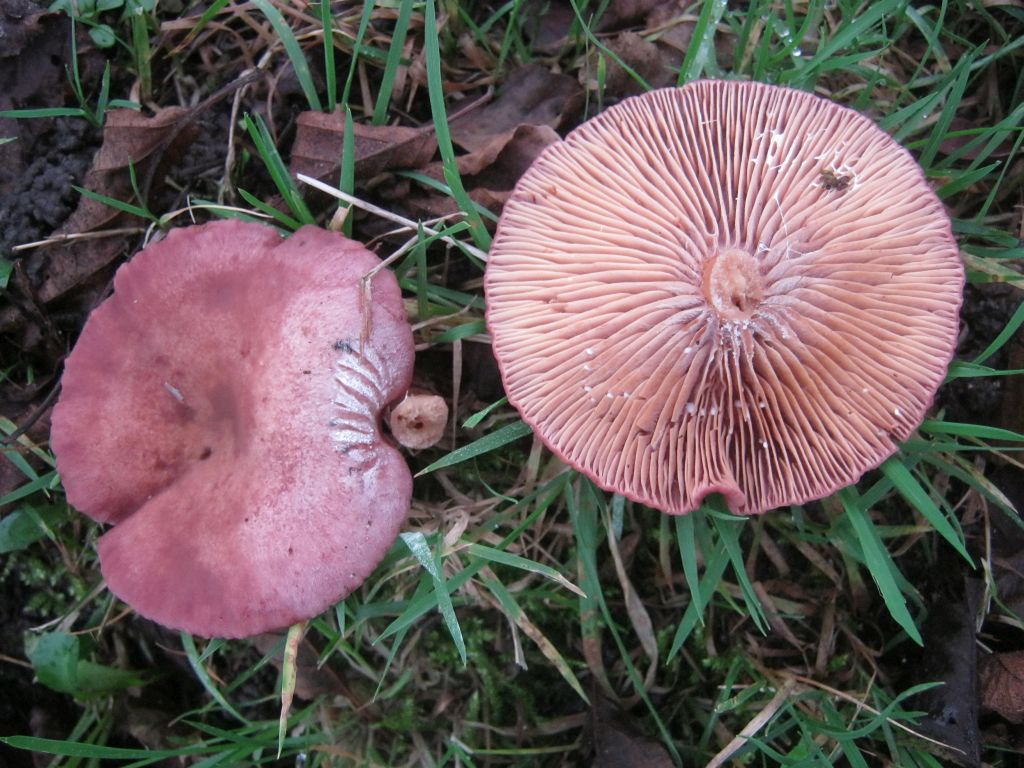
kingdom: Fungi
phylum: Basidiomycota
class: Agaricomycetes
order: Russulales
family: Russulaceae
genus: Lactarius
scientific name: Lactarius lilacinus
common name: lilla mælkehat
